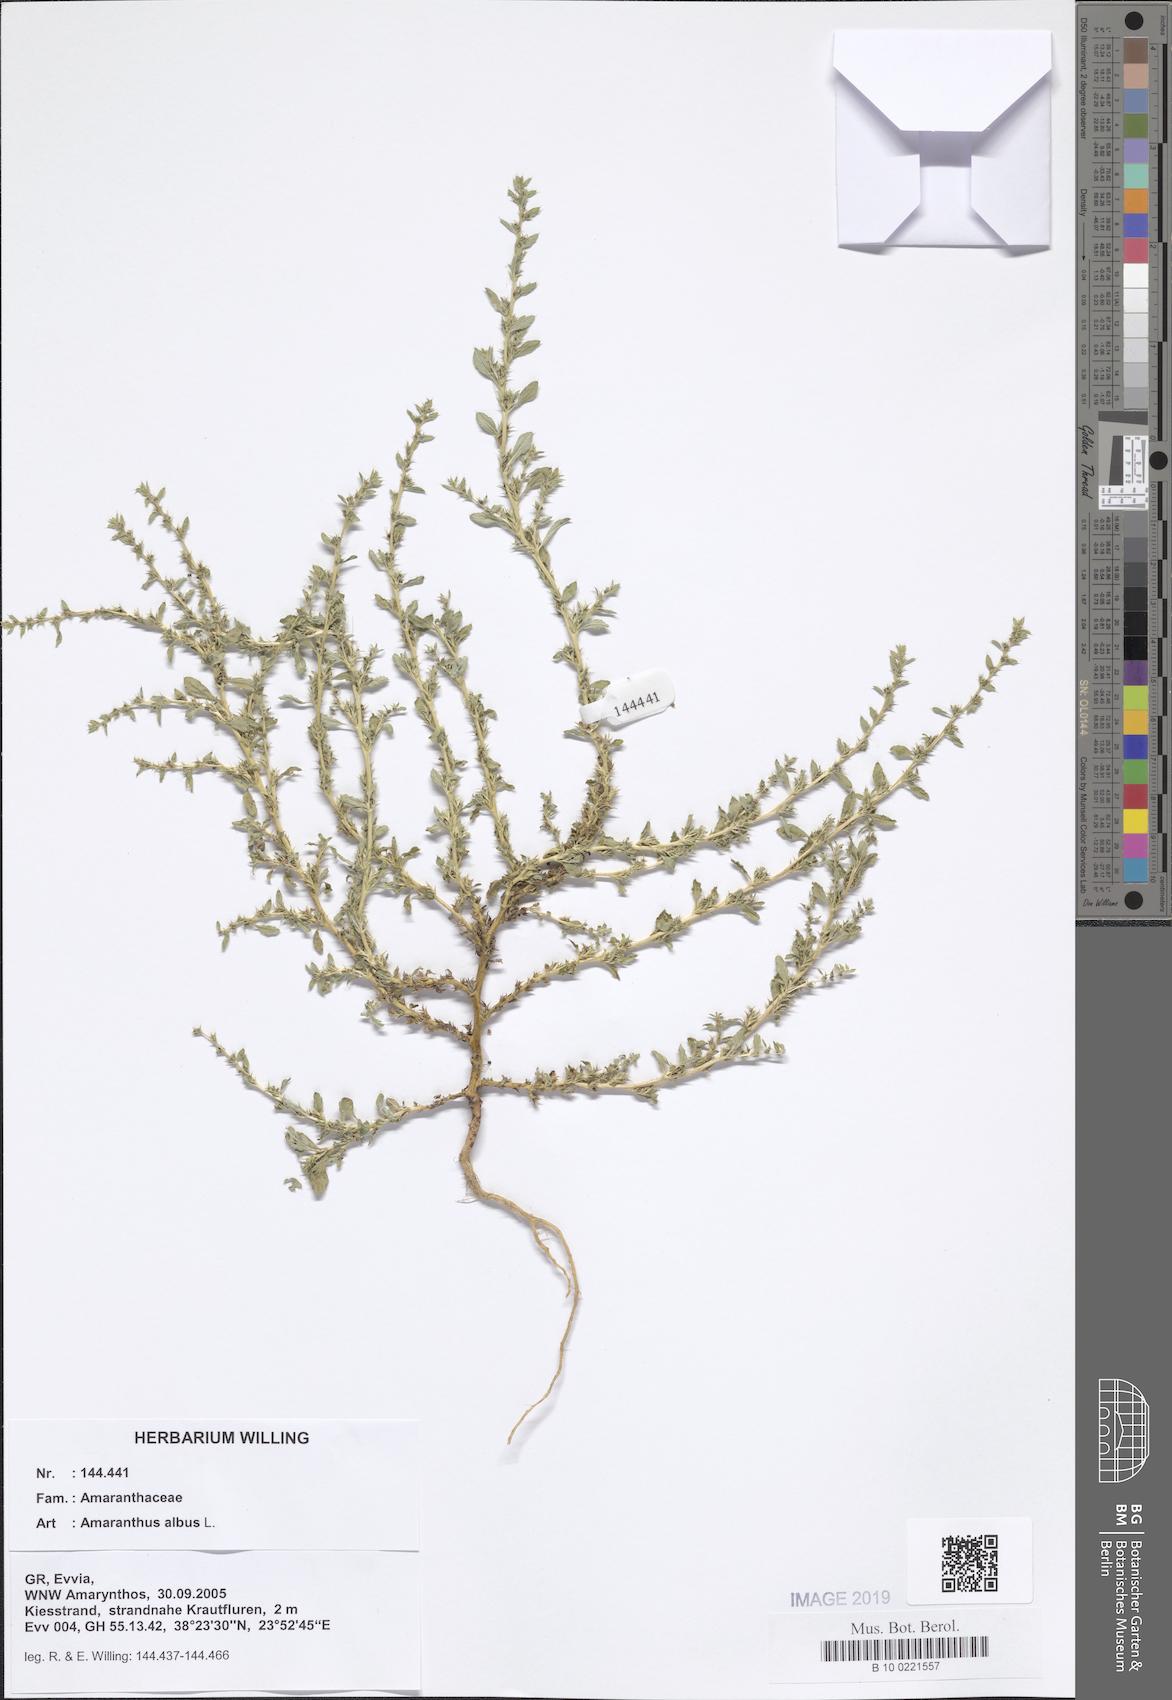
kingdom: Plantae
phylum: Tracheophyta
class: Magnoliopsida
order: Caryophyllales
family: Amaranthaceae
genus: Amaranthus
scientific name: Amaranthus albus
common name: White pigweed
